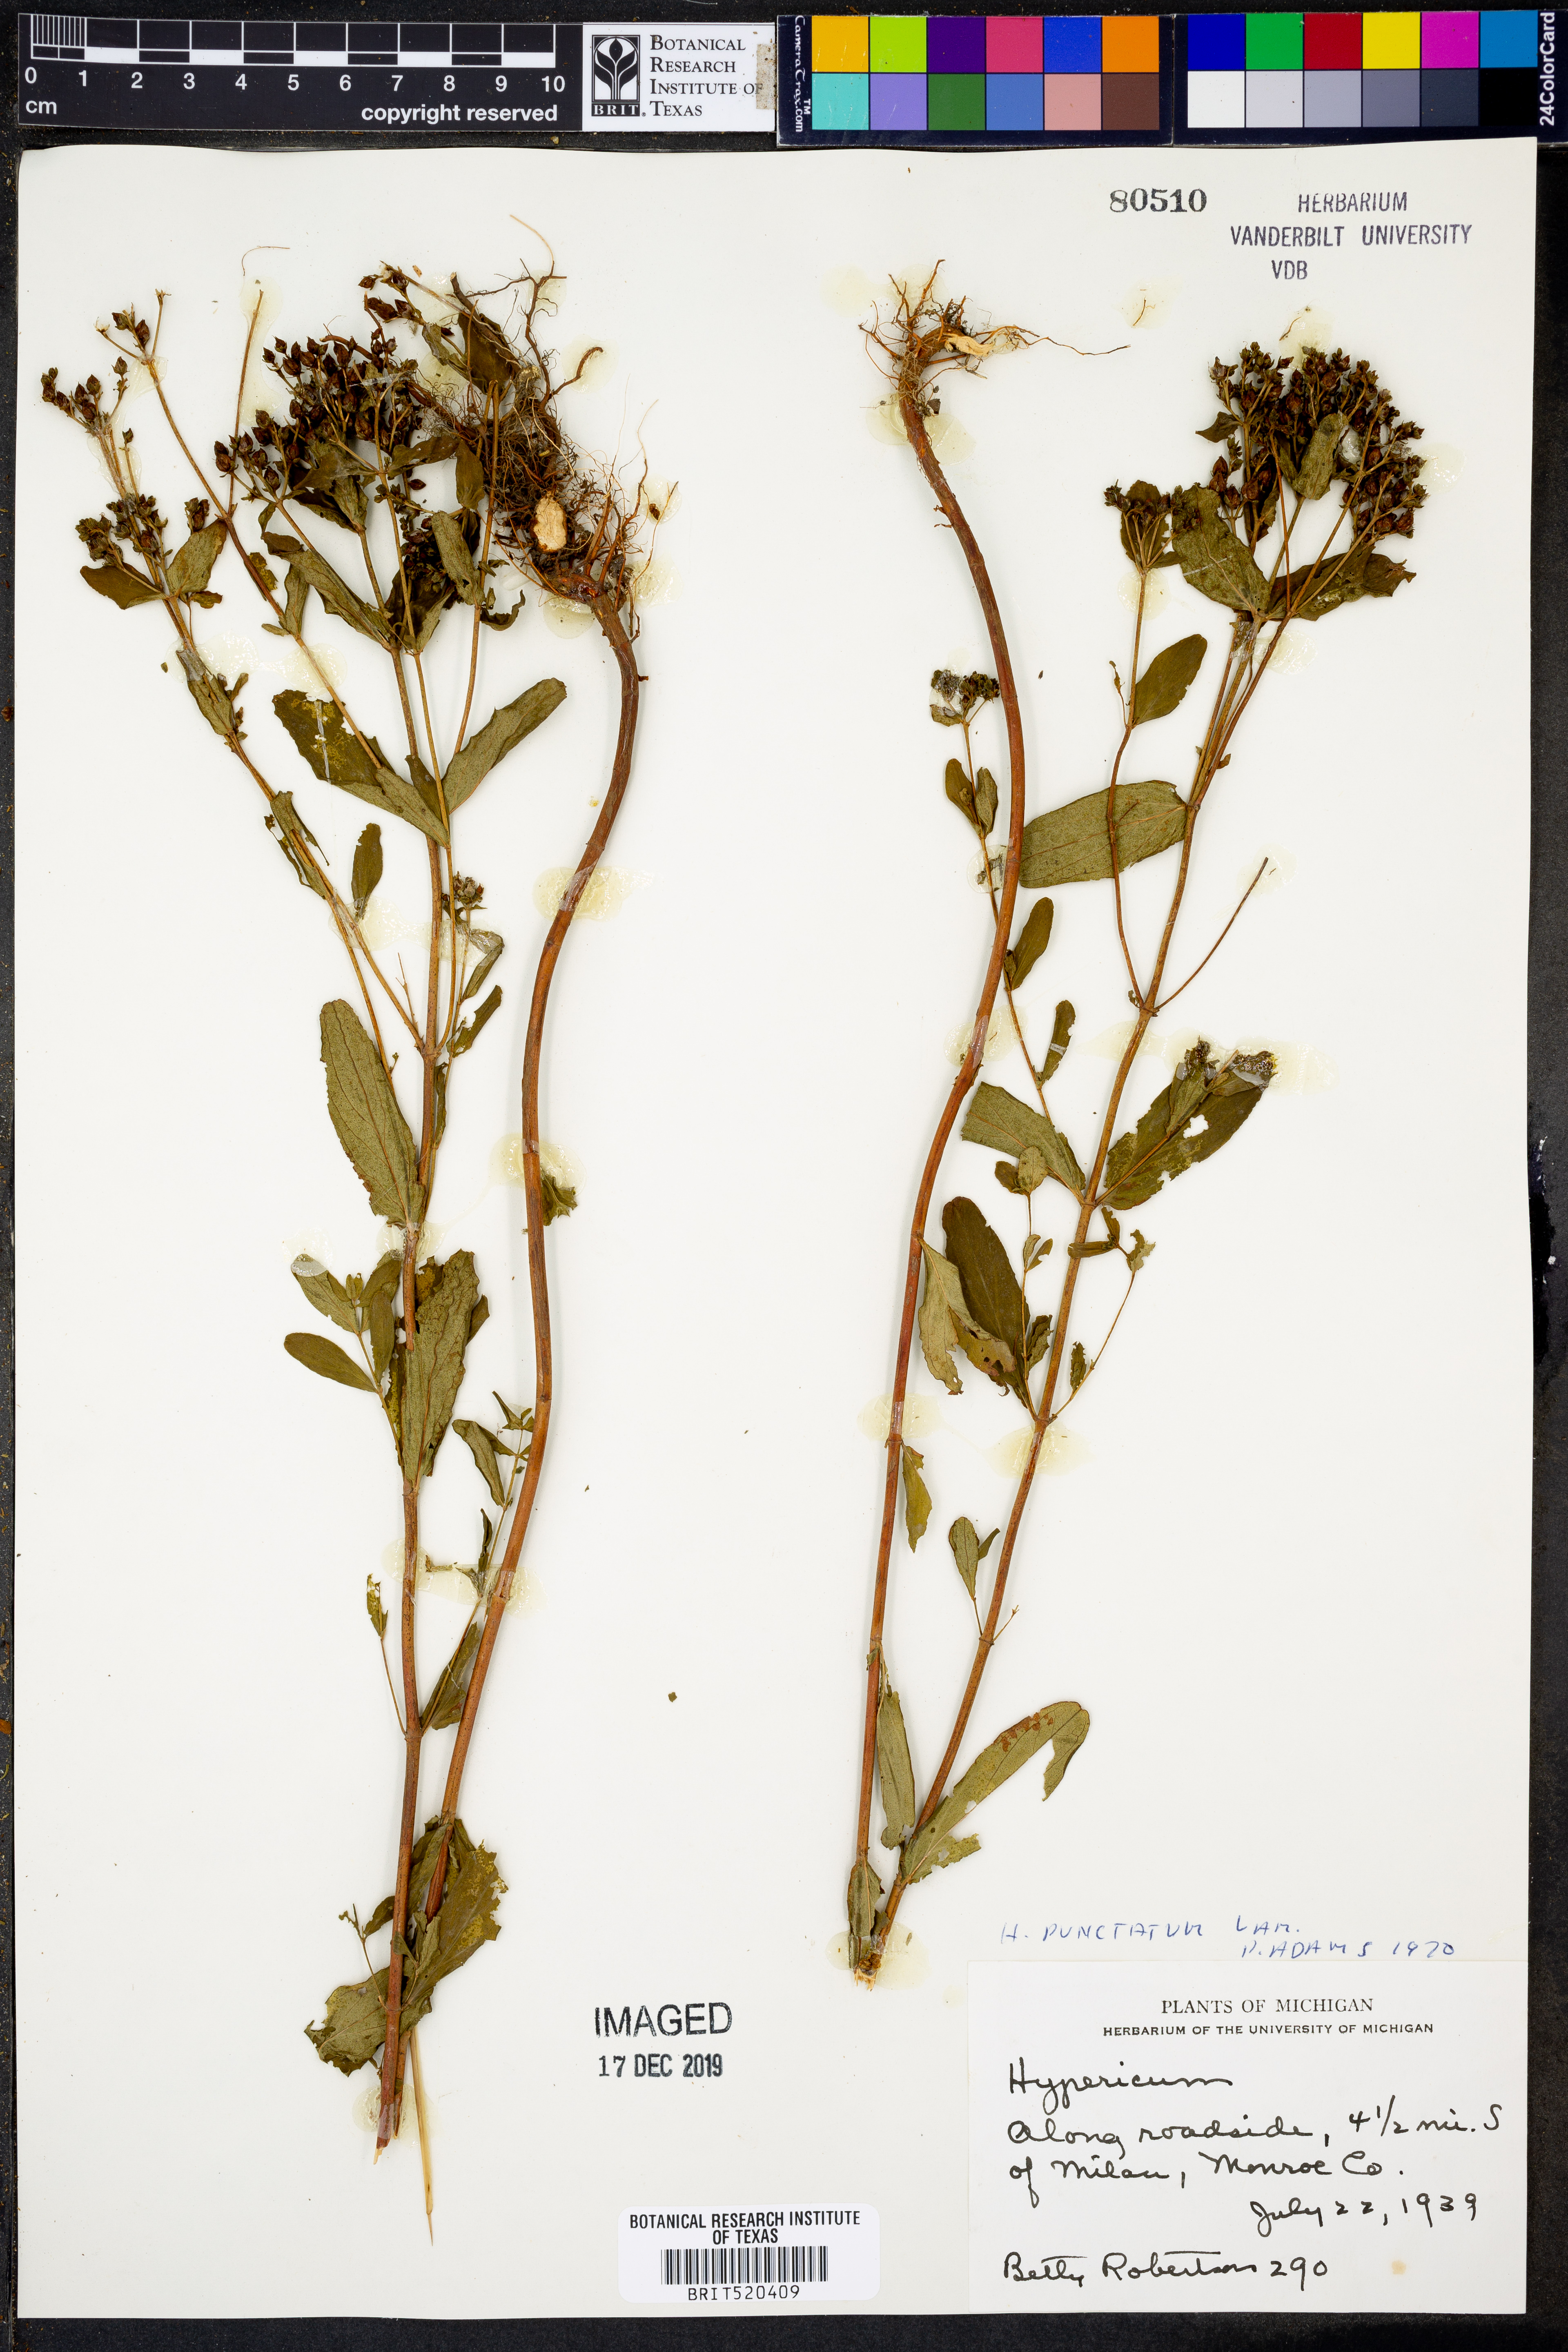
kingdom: Plantae
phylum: Tracheophyta
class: Magnoliopsida
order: Malpighiales
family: Hypericaceae
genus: Hypericum
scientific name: Hypericum punctatum
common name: Spotted st. john's-wort
